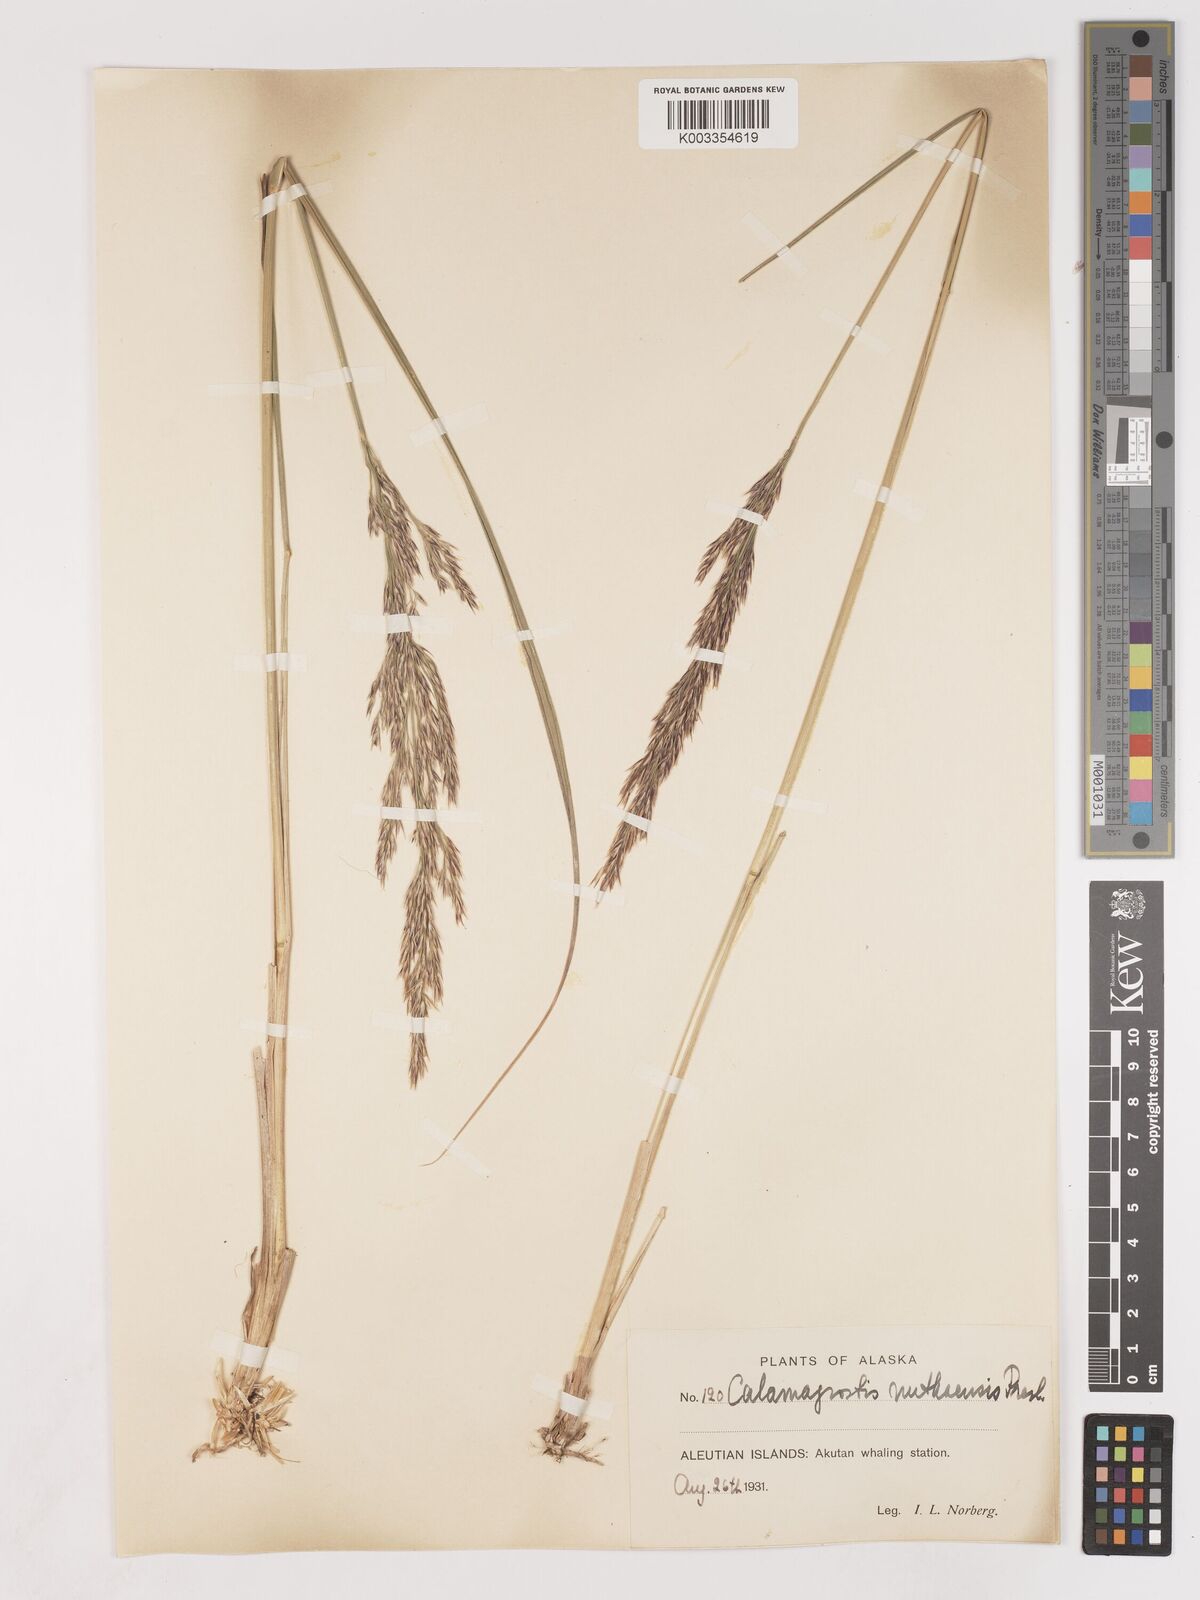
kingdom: Plantae
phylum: Tracheophyta
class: Liliopsida
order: Poales
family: Poaceae
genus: Calamagrostis
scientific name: Calamagrostis nutkaensis
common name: Pacific reed grass
